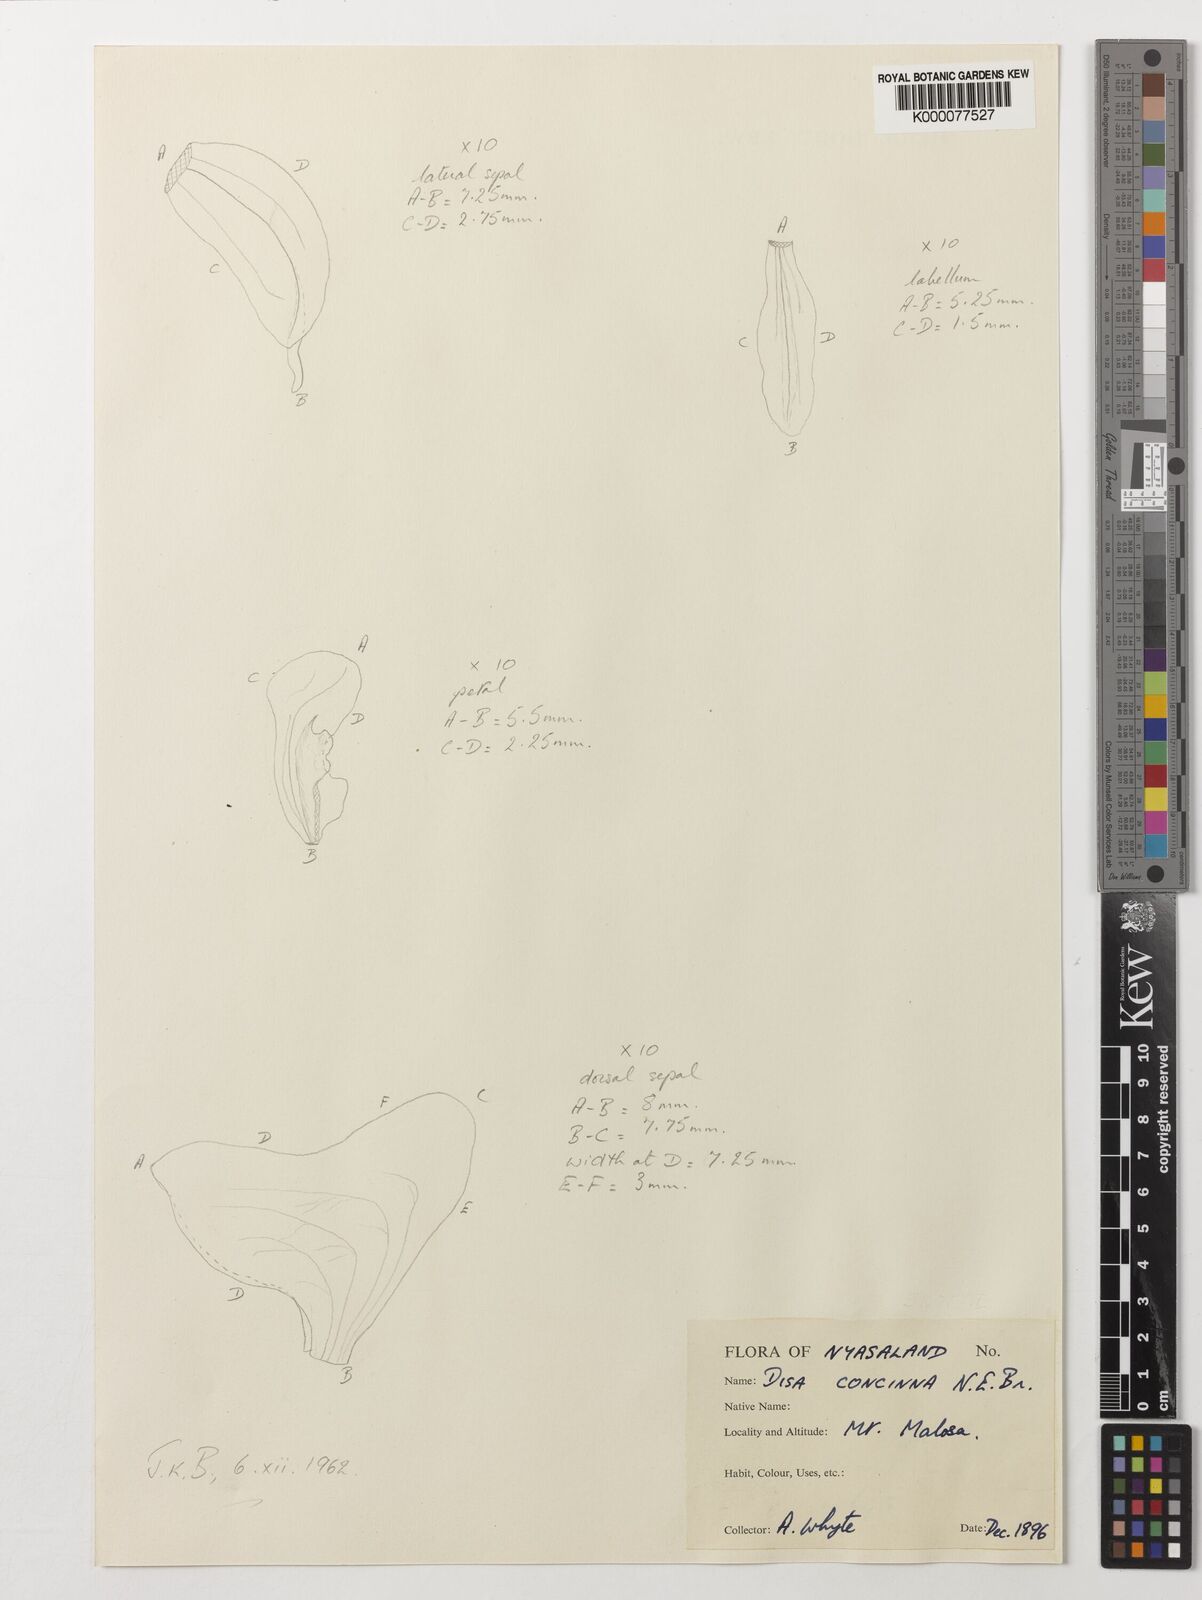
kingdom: Plantae
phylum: Tracheophyta
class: Liliopsida
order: Asparagales
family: Orchidaceae
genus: Disa
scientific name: Disa aconitoides
